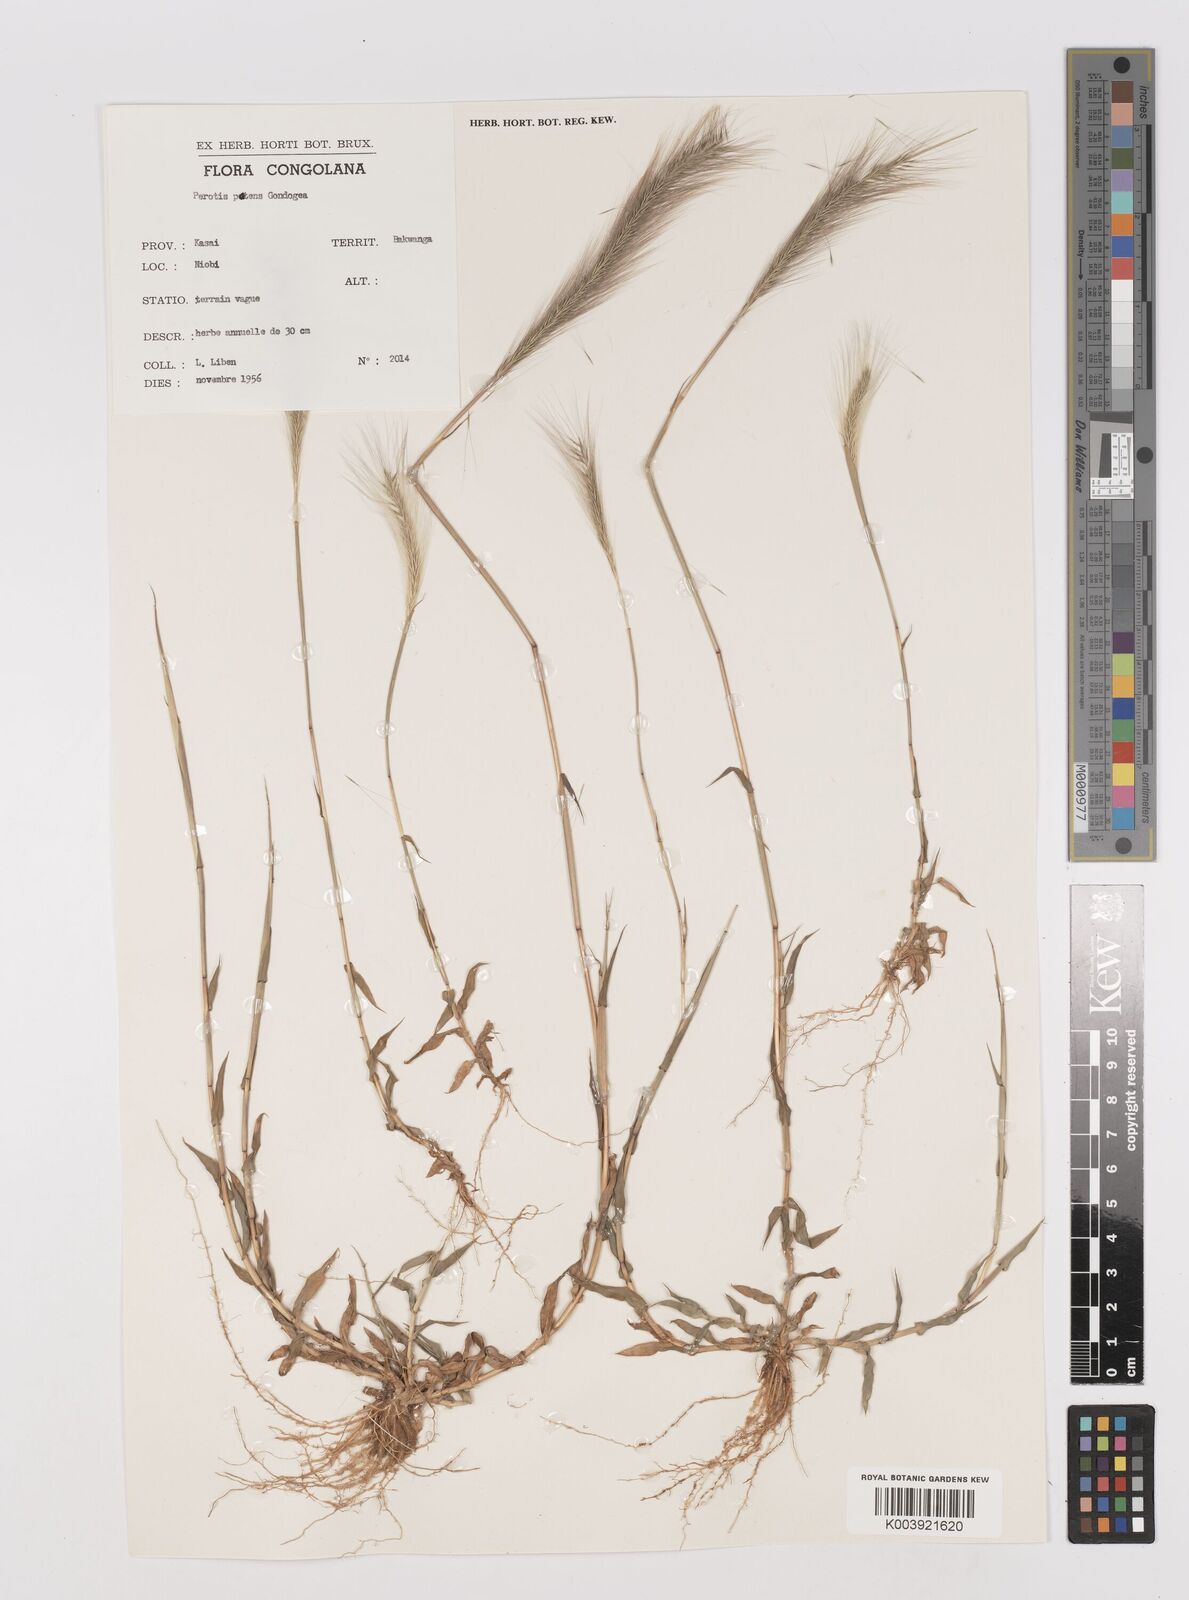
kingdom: Plantae
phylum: Tracheophyta
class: Liliopsida
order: Poales
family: Poaceae
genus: Perotis
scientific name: Perotis vaginata
